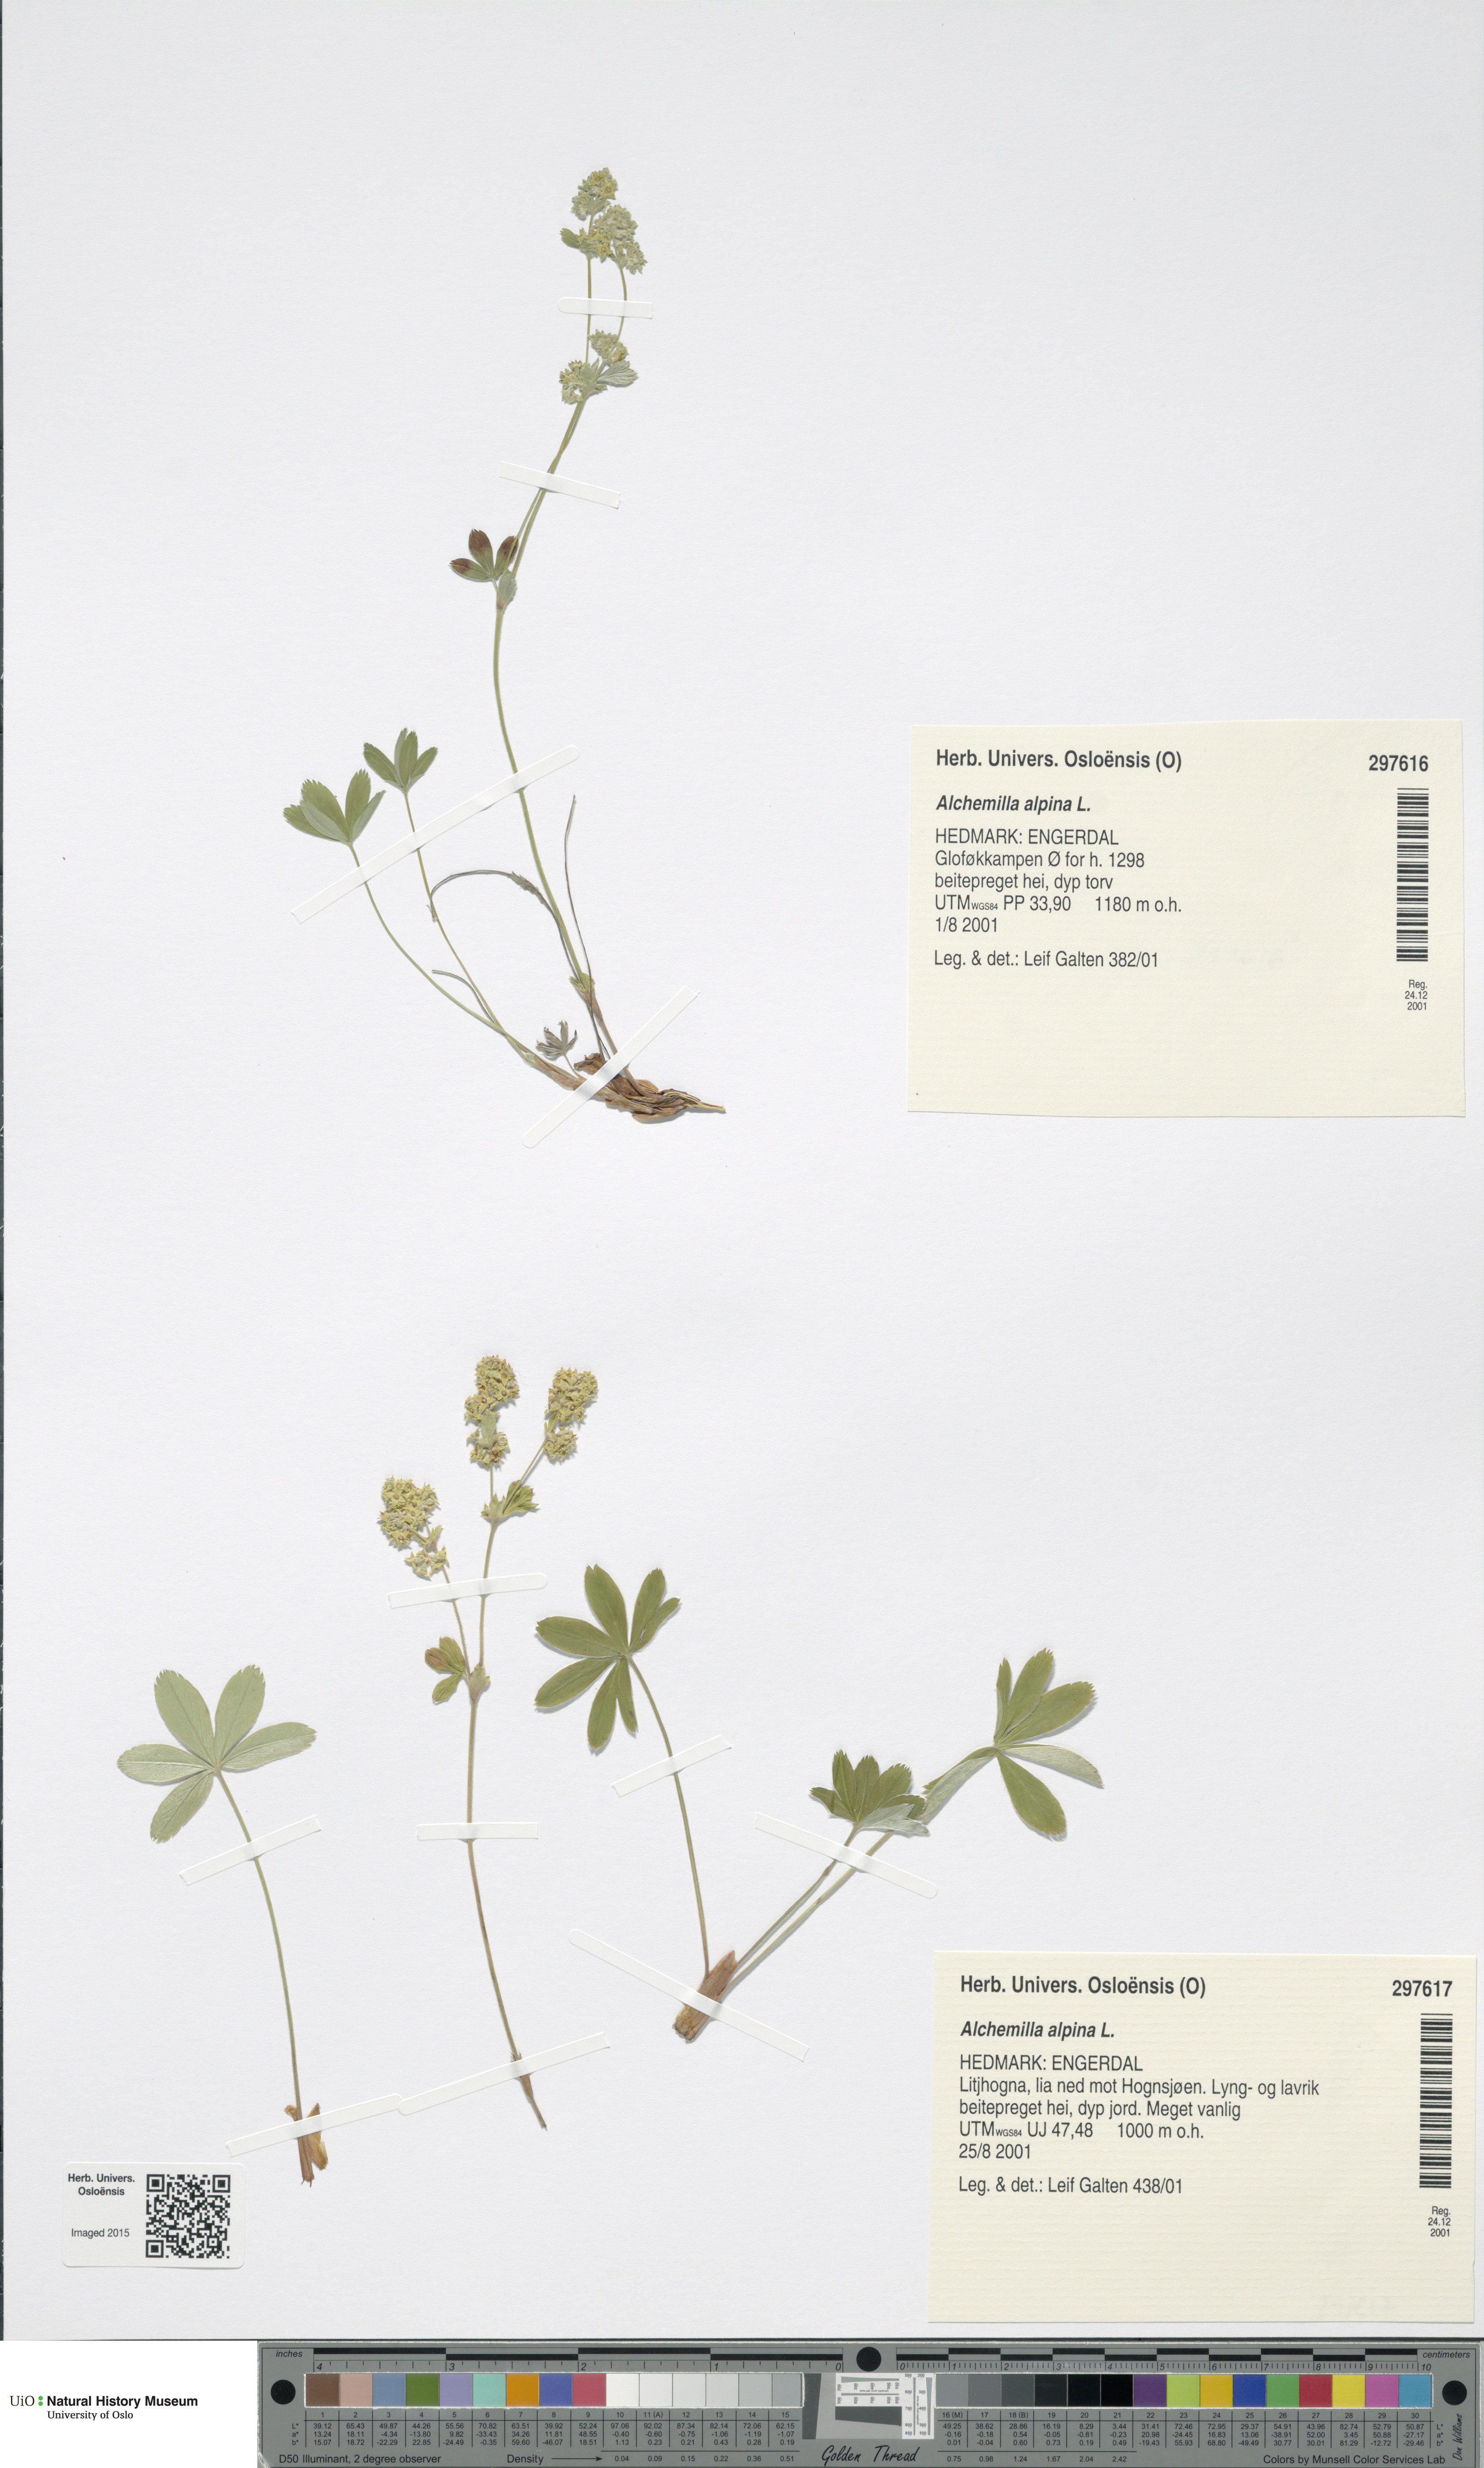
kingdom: Plantae
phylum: Tracheophyta
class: Magnoliopsida
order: Rosales
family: Rosaceae
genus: Alchemilla
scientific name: Alchemilla alpina
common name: Alpine lady's-mantle
